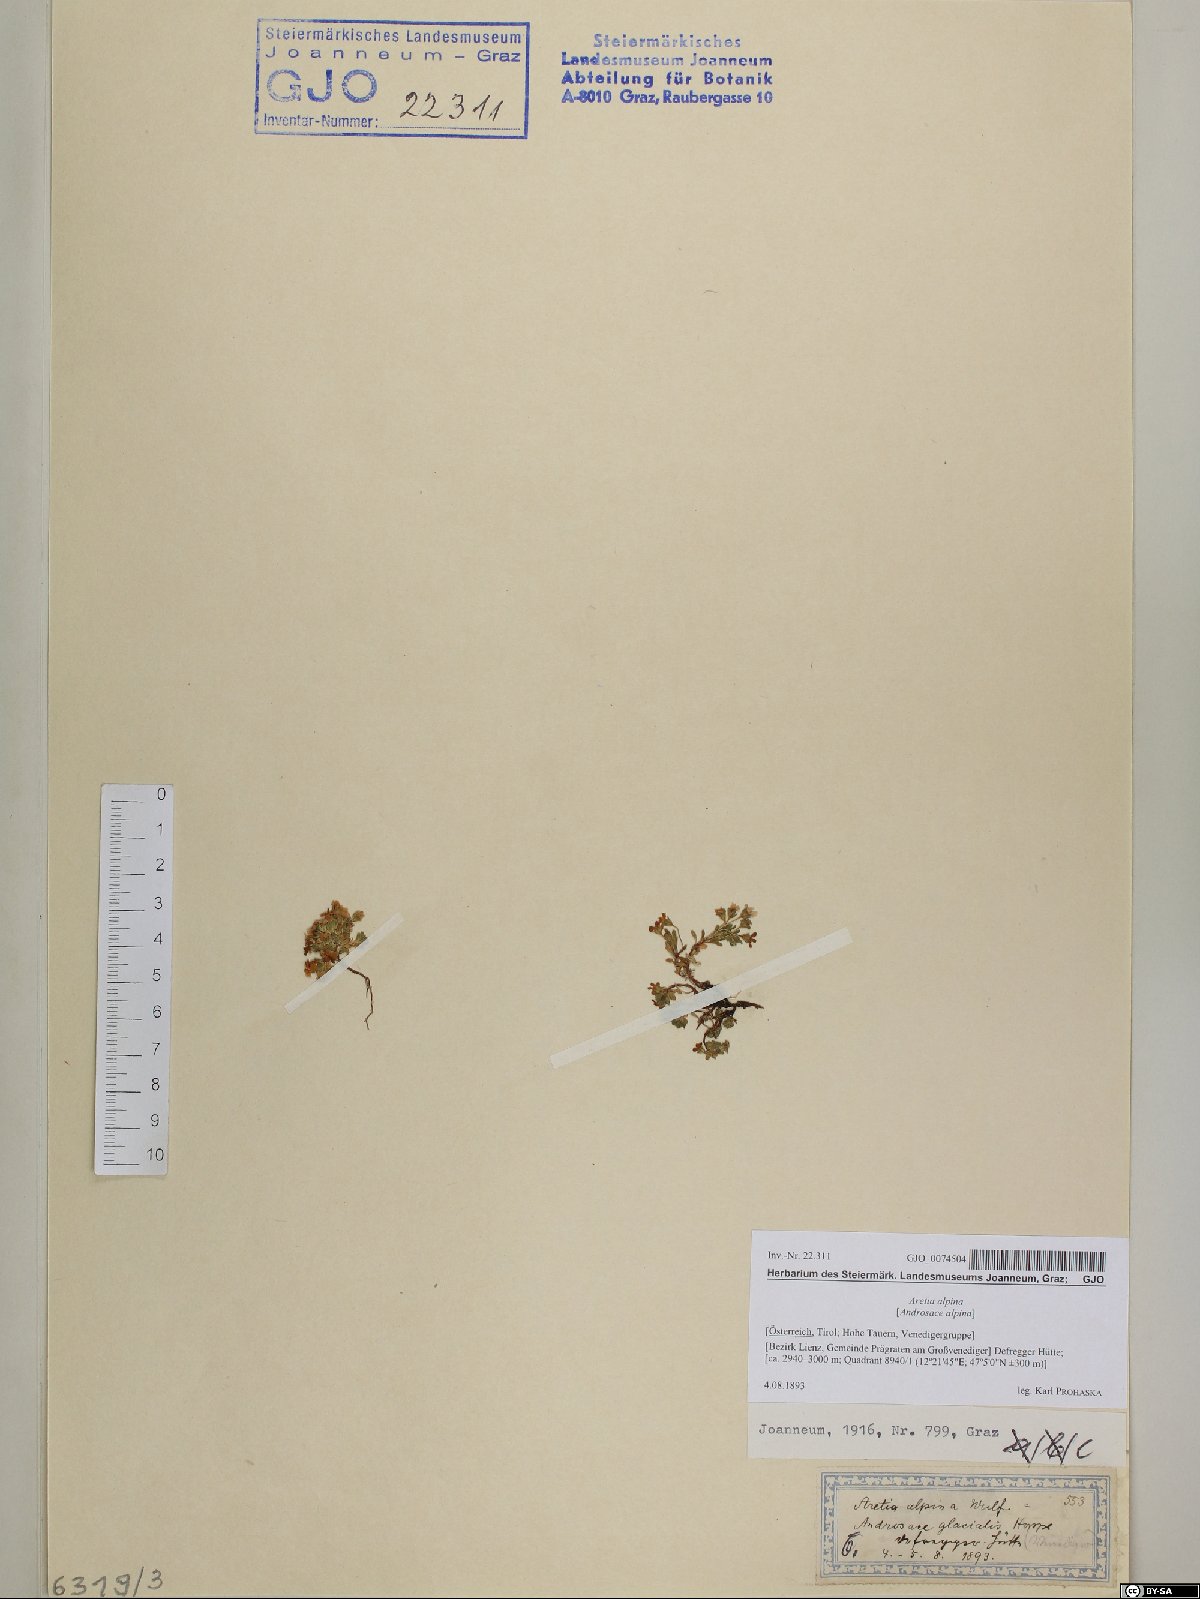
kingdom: Plantae
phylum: Tracheophyta
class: Magnoliopsida
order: Ericales
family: Primulaceae
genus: Androsace
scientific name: Androsace alpina
